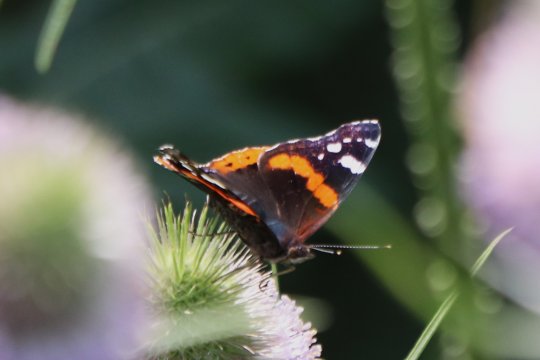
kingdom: Animalia
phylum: Arthropoda
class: Insecta
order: Lepidoptera
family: Nymphalidae
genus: Vanessa
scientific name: Vanessa atalanta
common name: Red Admiral
